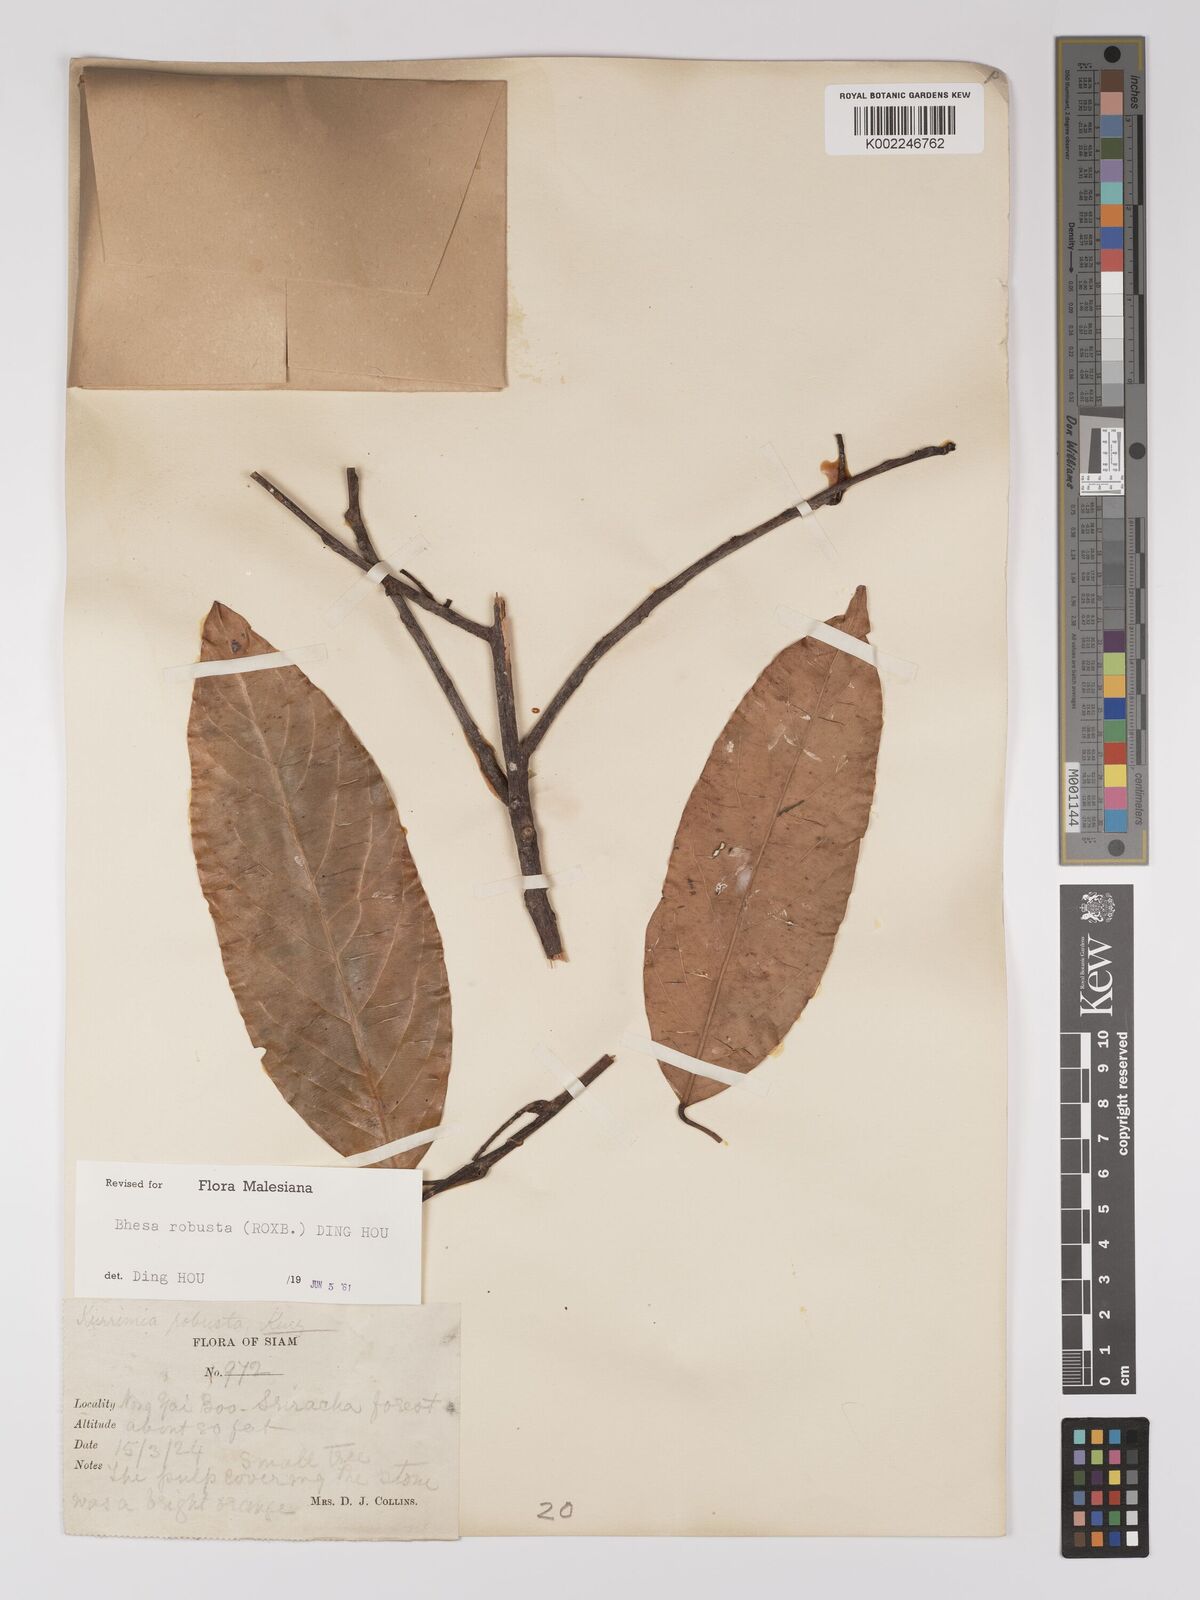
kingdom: Plantae
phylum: Tracheophyta
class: Magnoliopsida
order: Malpighiales
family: Centroplacaceae
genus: Bhesa
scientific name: Bhesa robusta
